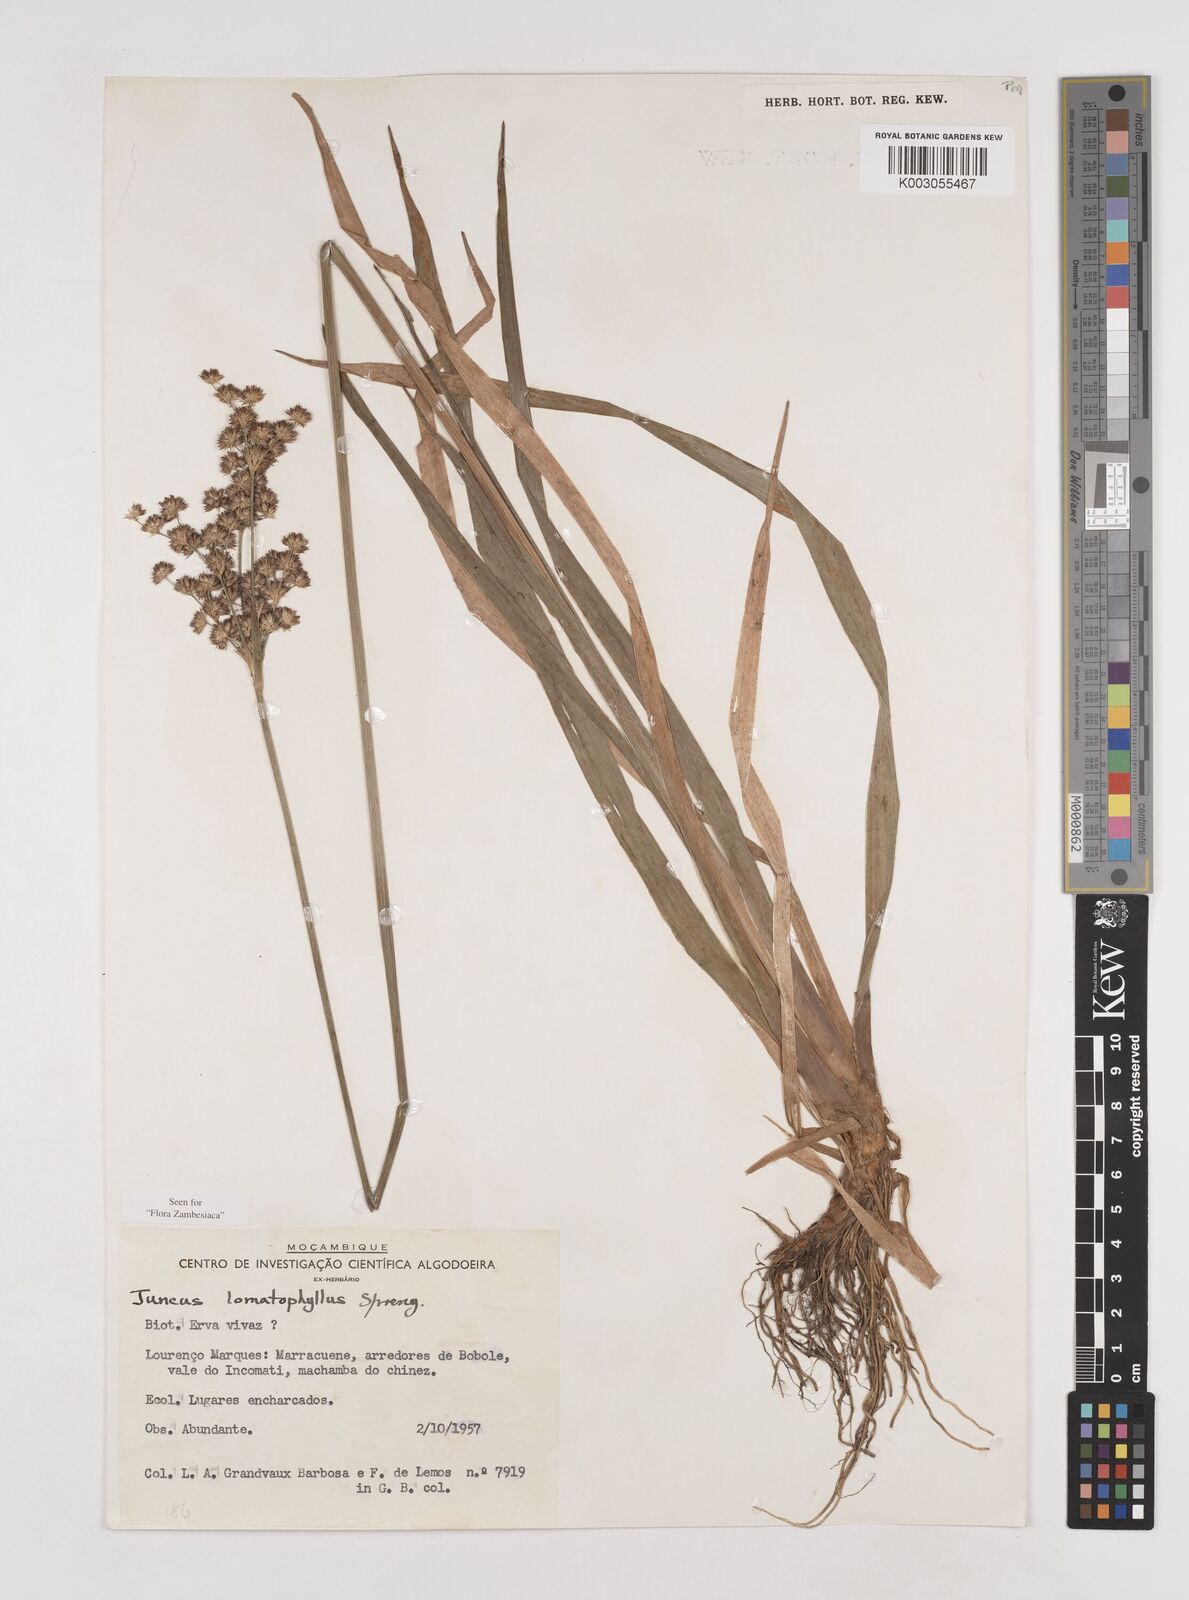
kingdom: Plantae
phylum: Tracheophyta
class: Liliopsida
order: Poales
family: Juncaceae
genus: Juncus
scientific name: Juncus lomatophyllus
